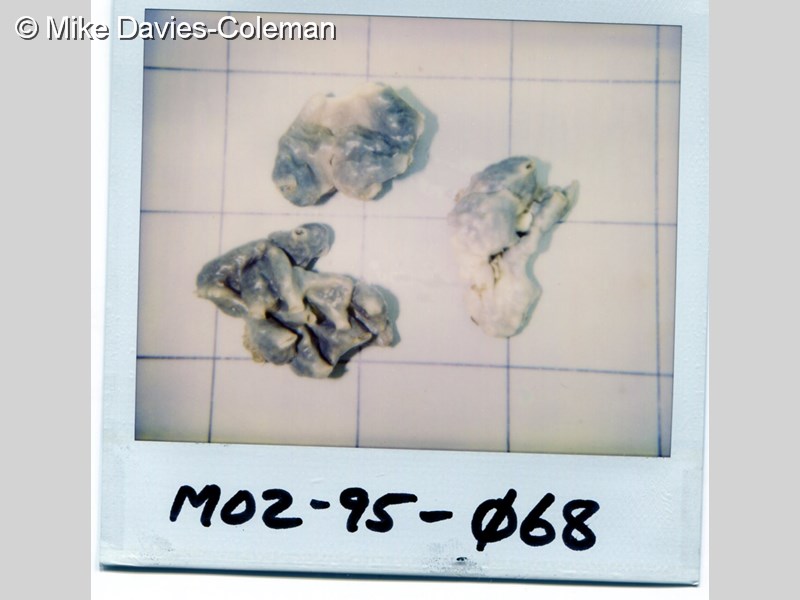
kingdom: Animalia
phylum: Porifera
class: Calcarea
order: Clathrinida
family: Clathrinidae
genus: Clathrina
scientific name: Clathrina
